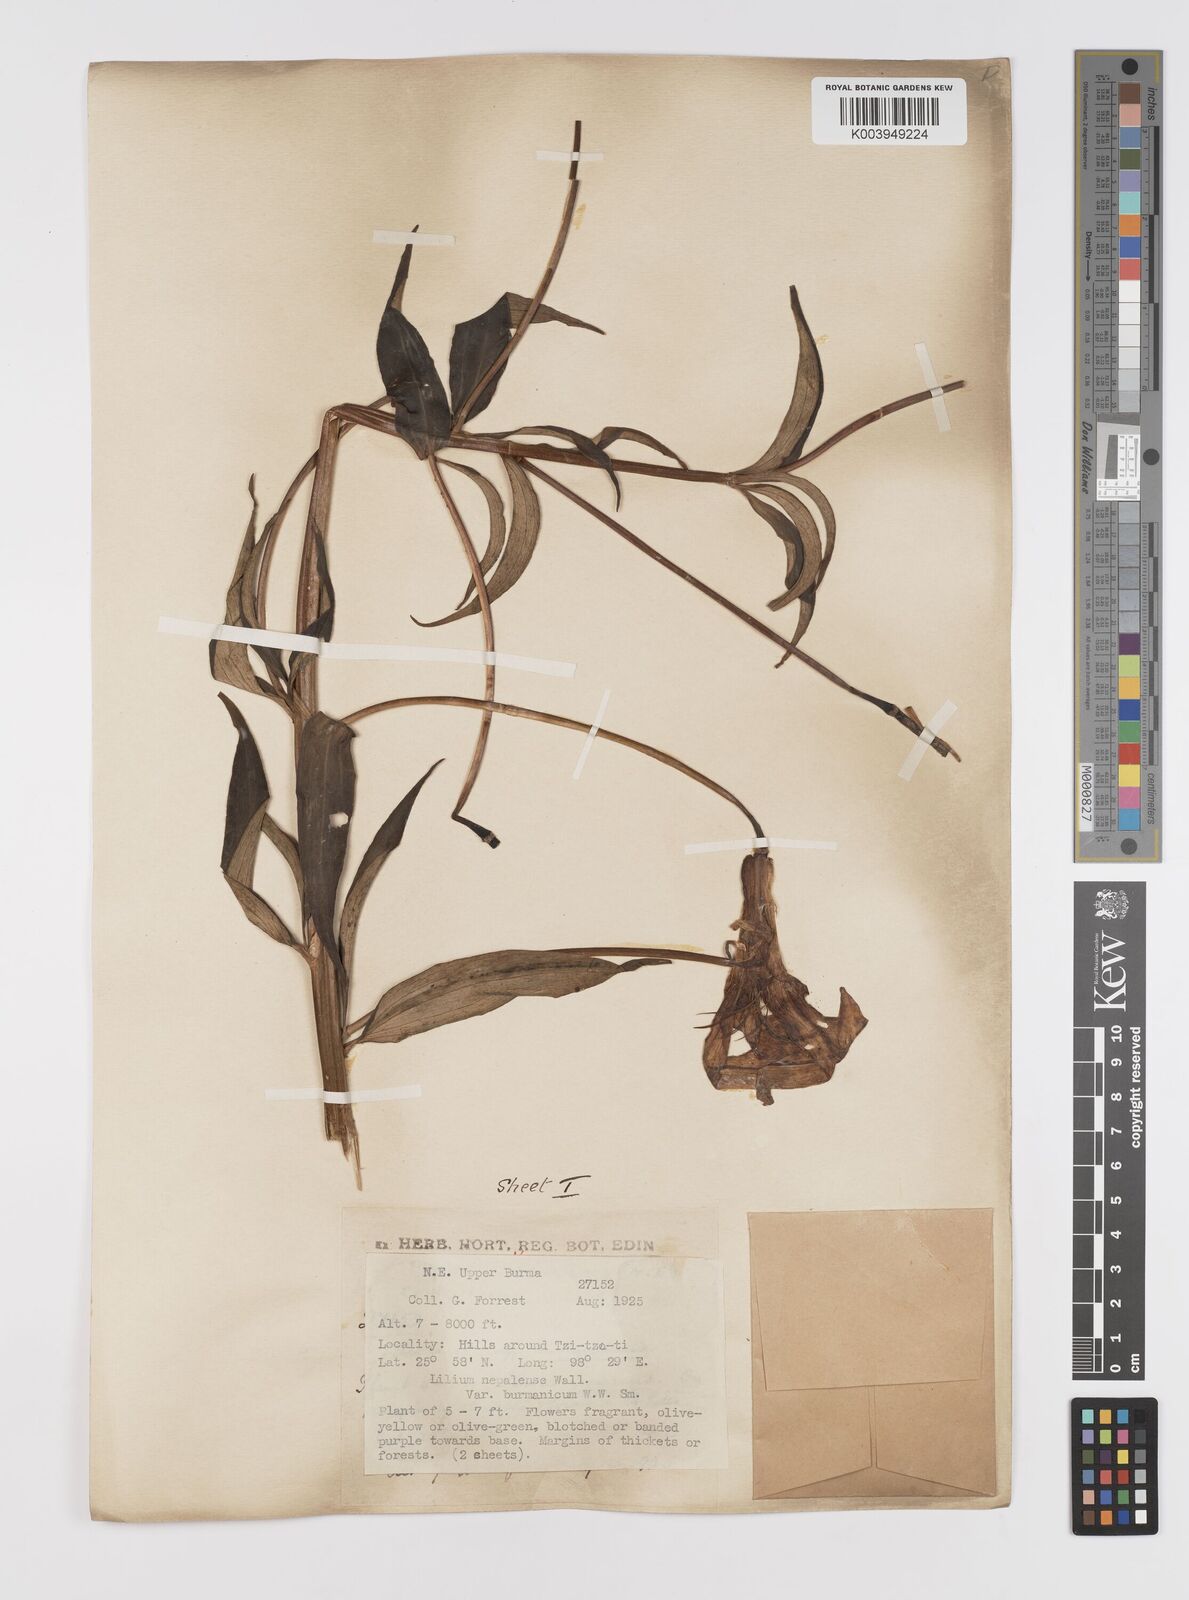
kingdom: Plantae
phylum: Tracheophyta
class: Liliopsida
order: Liliales
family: Liliaceae
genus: Lilium
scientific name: Lilium primulinum
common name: Ochre lily
